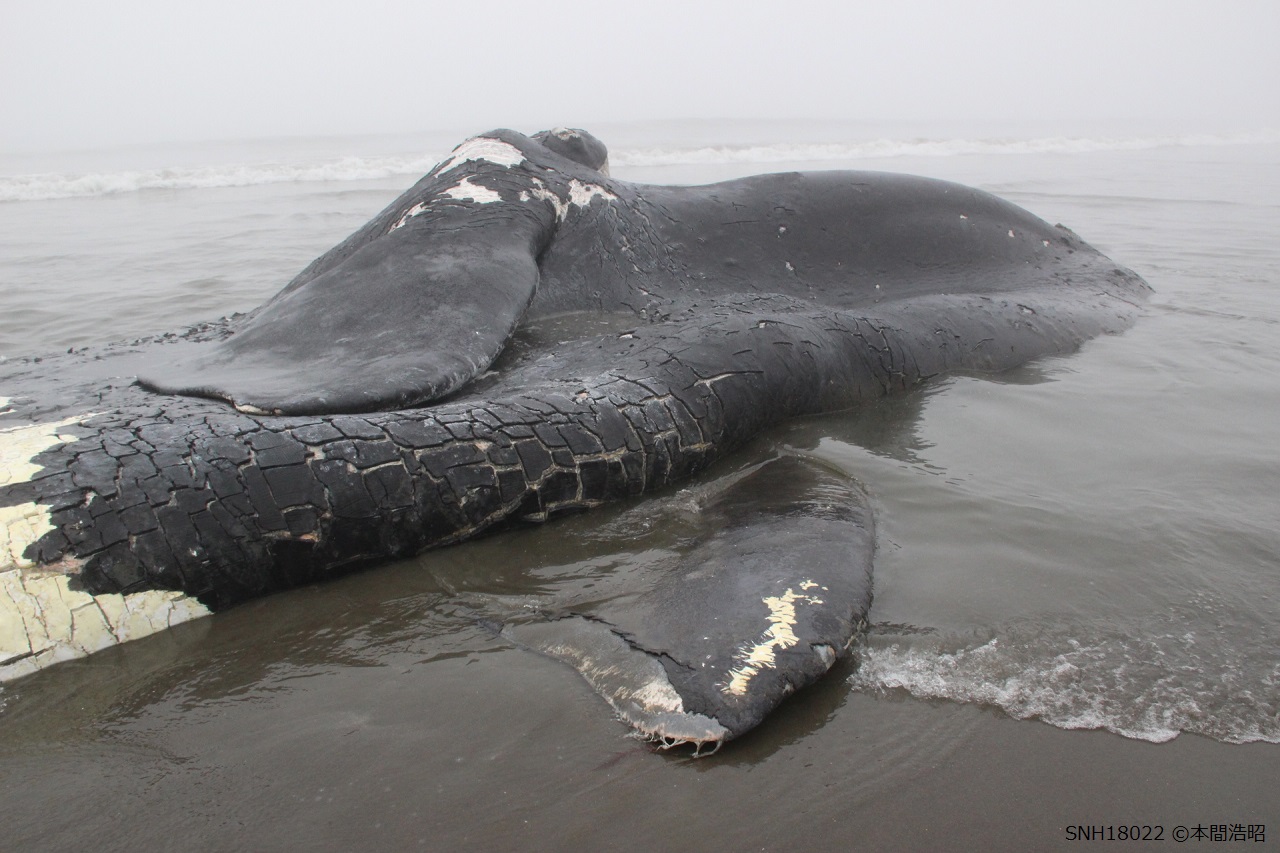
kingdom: Animalia
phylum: Chordata
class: Mammalia
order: Cetacea
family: Balaenidae
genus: Eubalaena
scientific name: Eubalaena japonica
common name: Right whale
